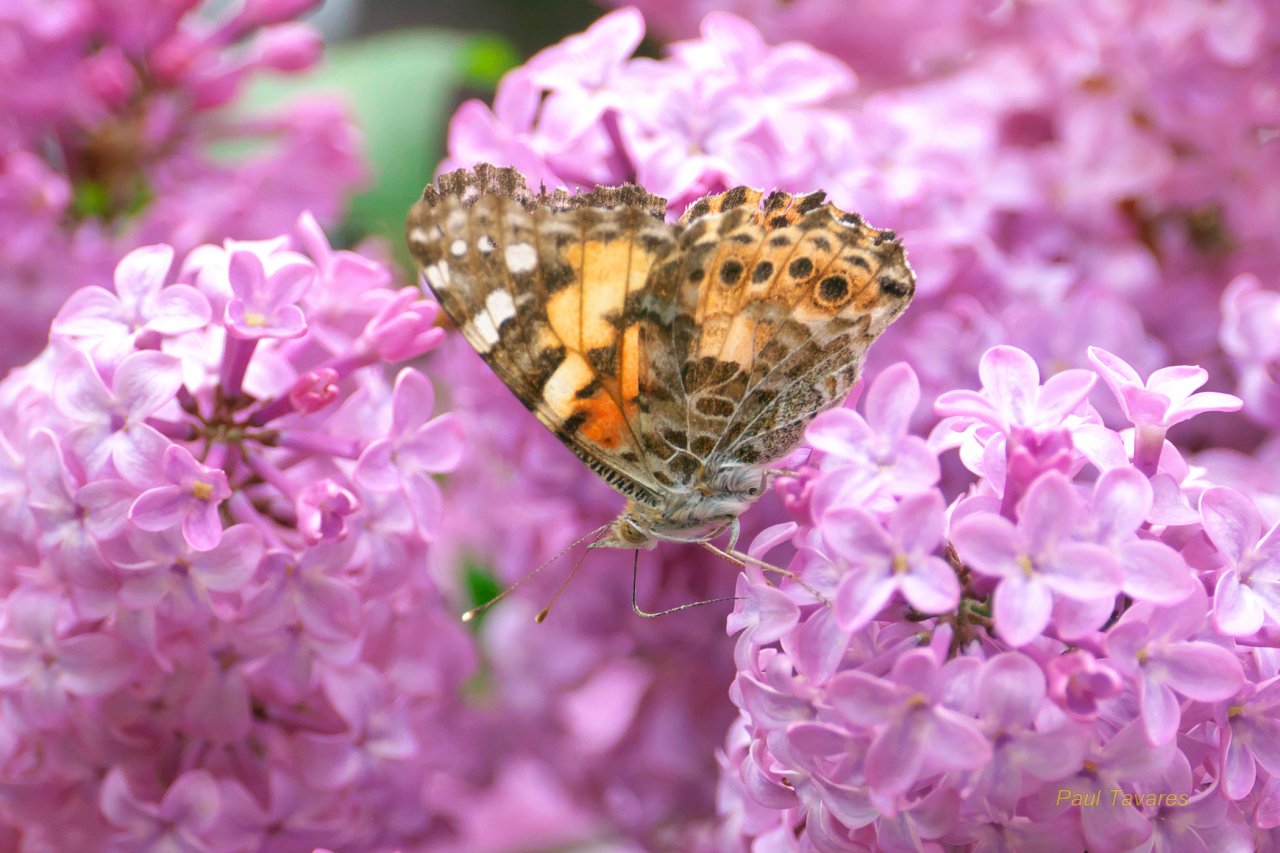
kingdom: Animalia
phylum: Arthropoda
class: Insecta
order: Lepidoptera
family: Nymphalidae
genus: Vanessa
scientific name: Vanessa cardui
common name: Painted Lady
